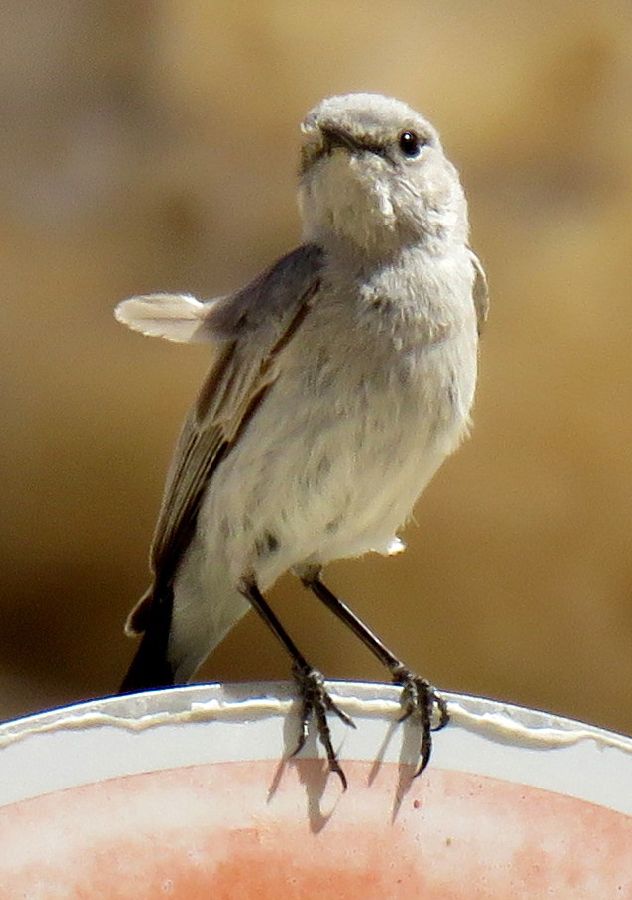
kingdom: Animalia
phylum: Chordata
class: Aves
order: Passeriformes
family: Muscicapidae
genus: Oenanthe
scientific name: Oenanthe melanura
